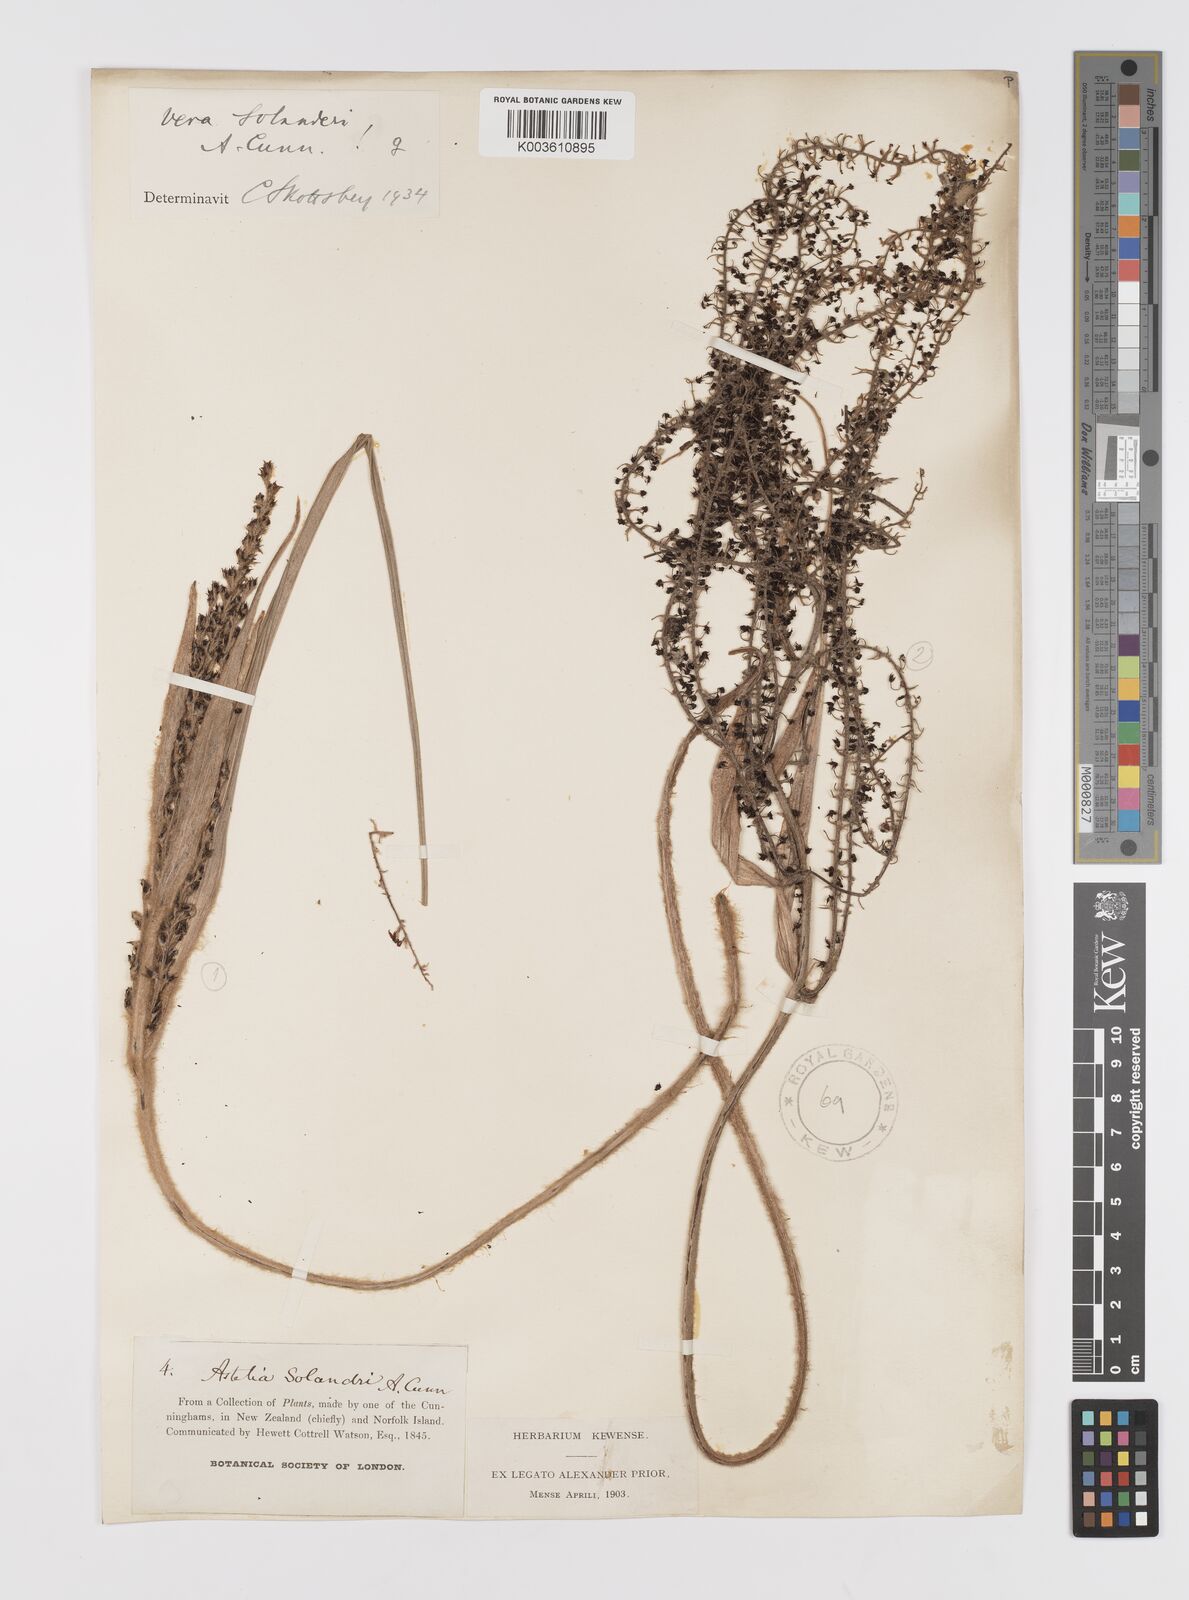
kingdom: Plantae
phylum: Tracheophyta
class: Liliopsida
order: Asparagales
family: Asteliaceae
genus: Astelia
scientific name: Astelia solandri
